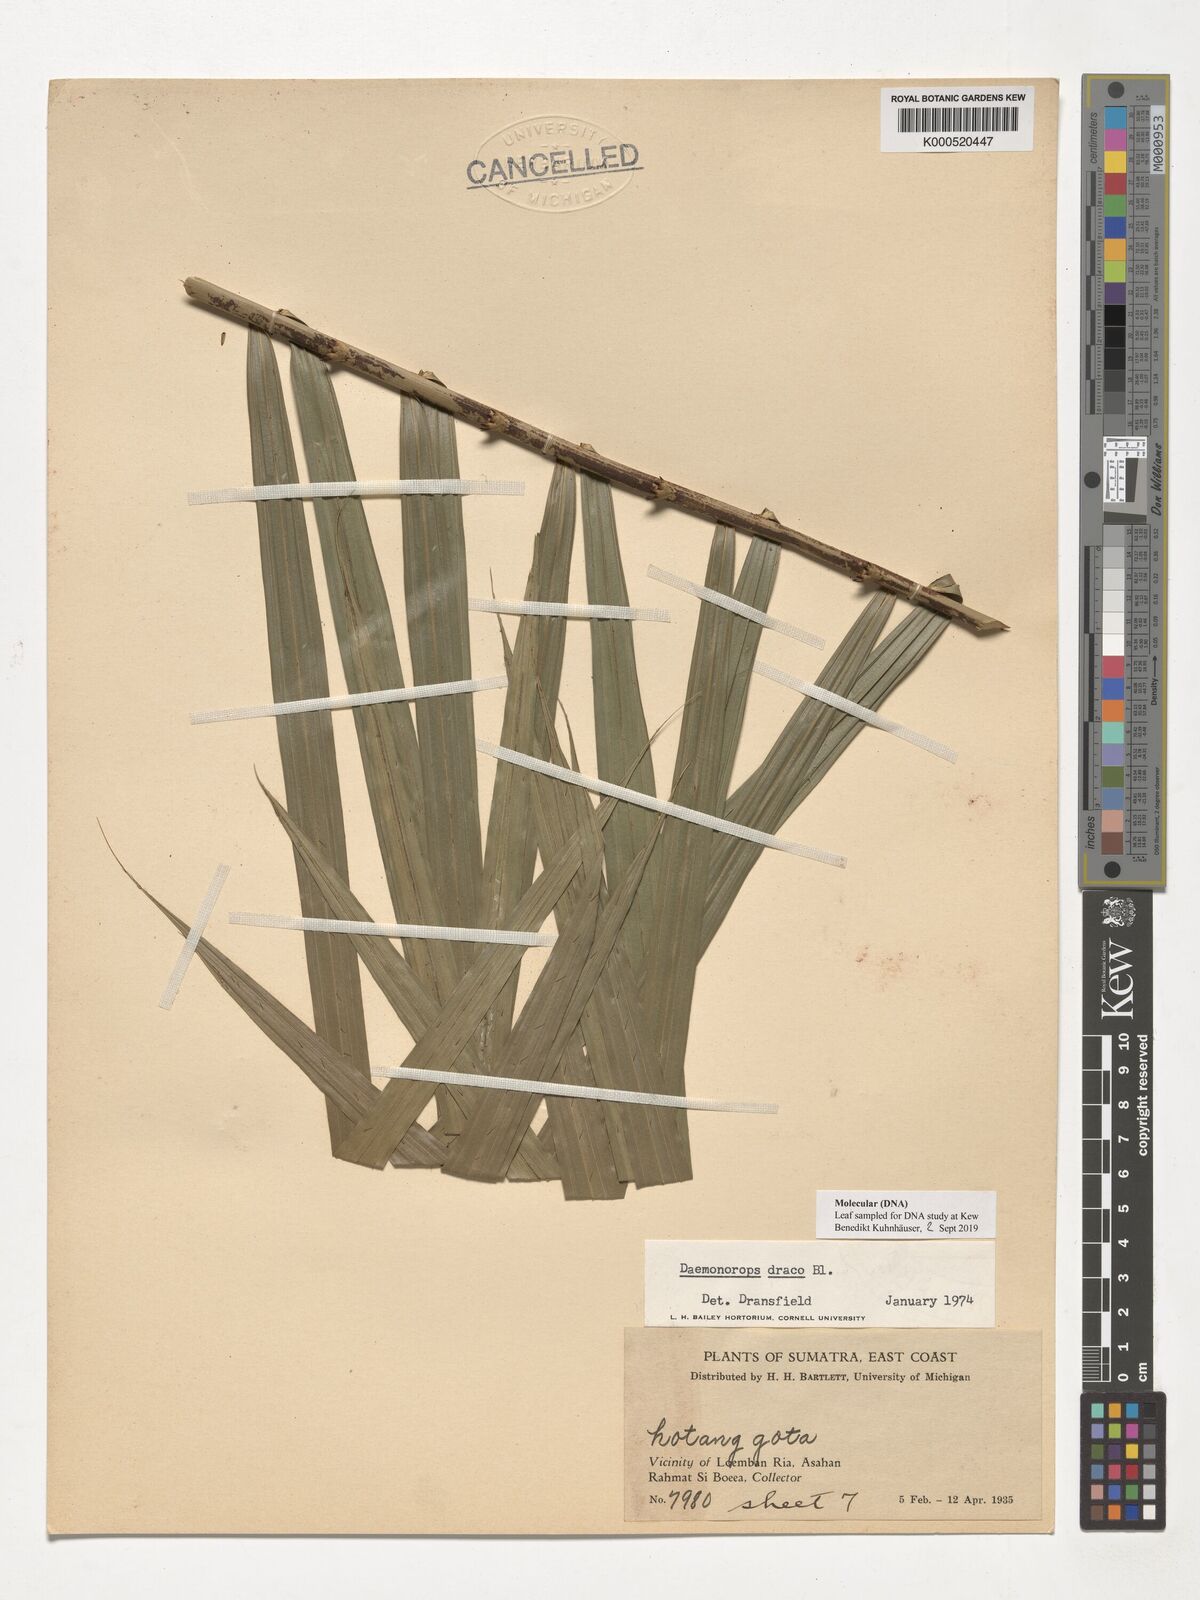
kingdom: Plantae
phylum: Tracheophyta
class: Liliopsida
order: Arecales
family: Arecaceae
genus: Calamus
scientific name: Calamus draco
